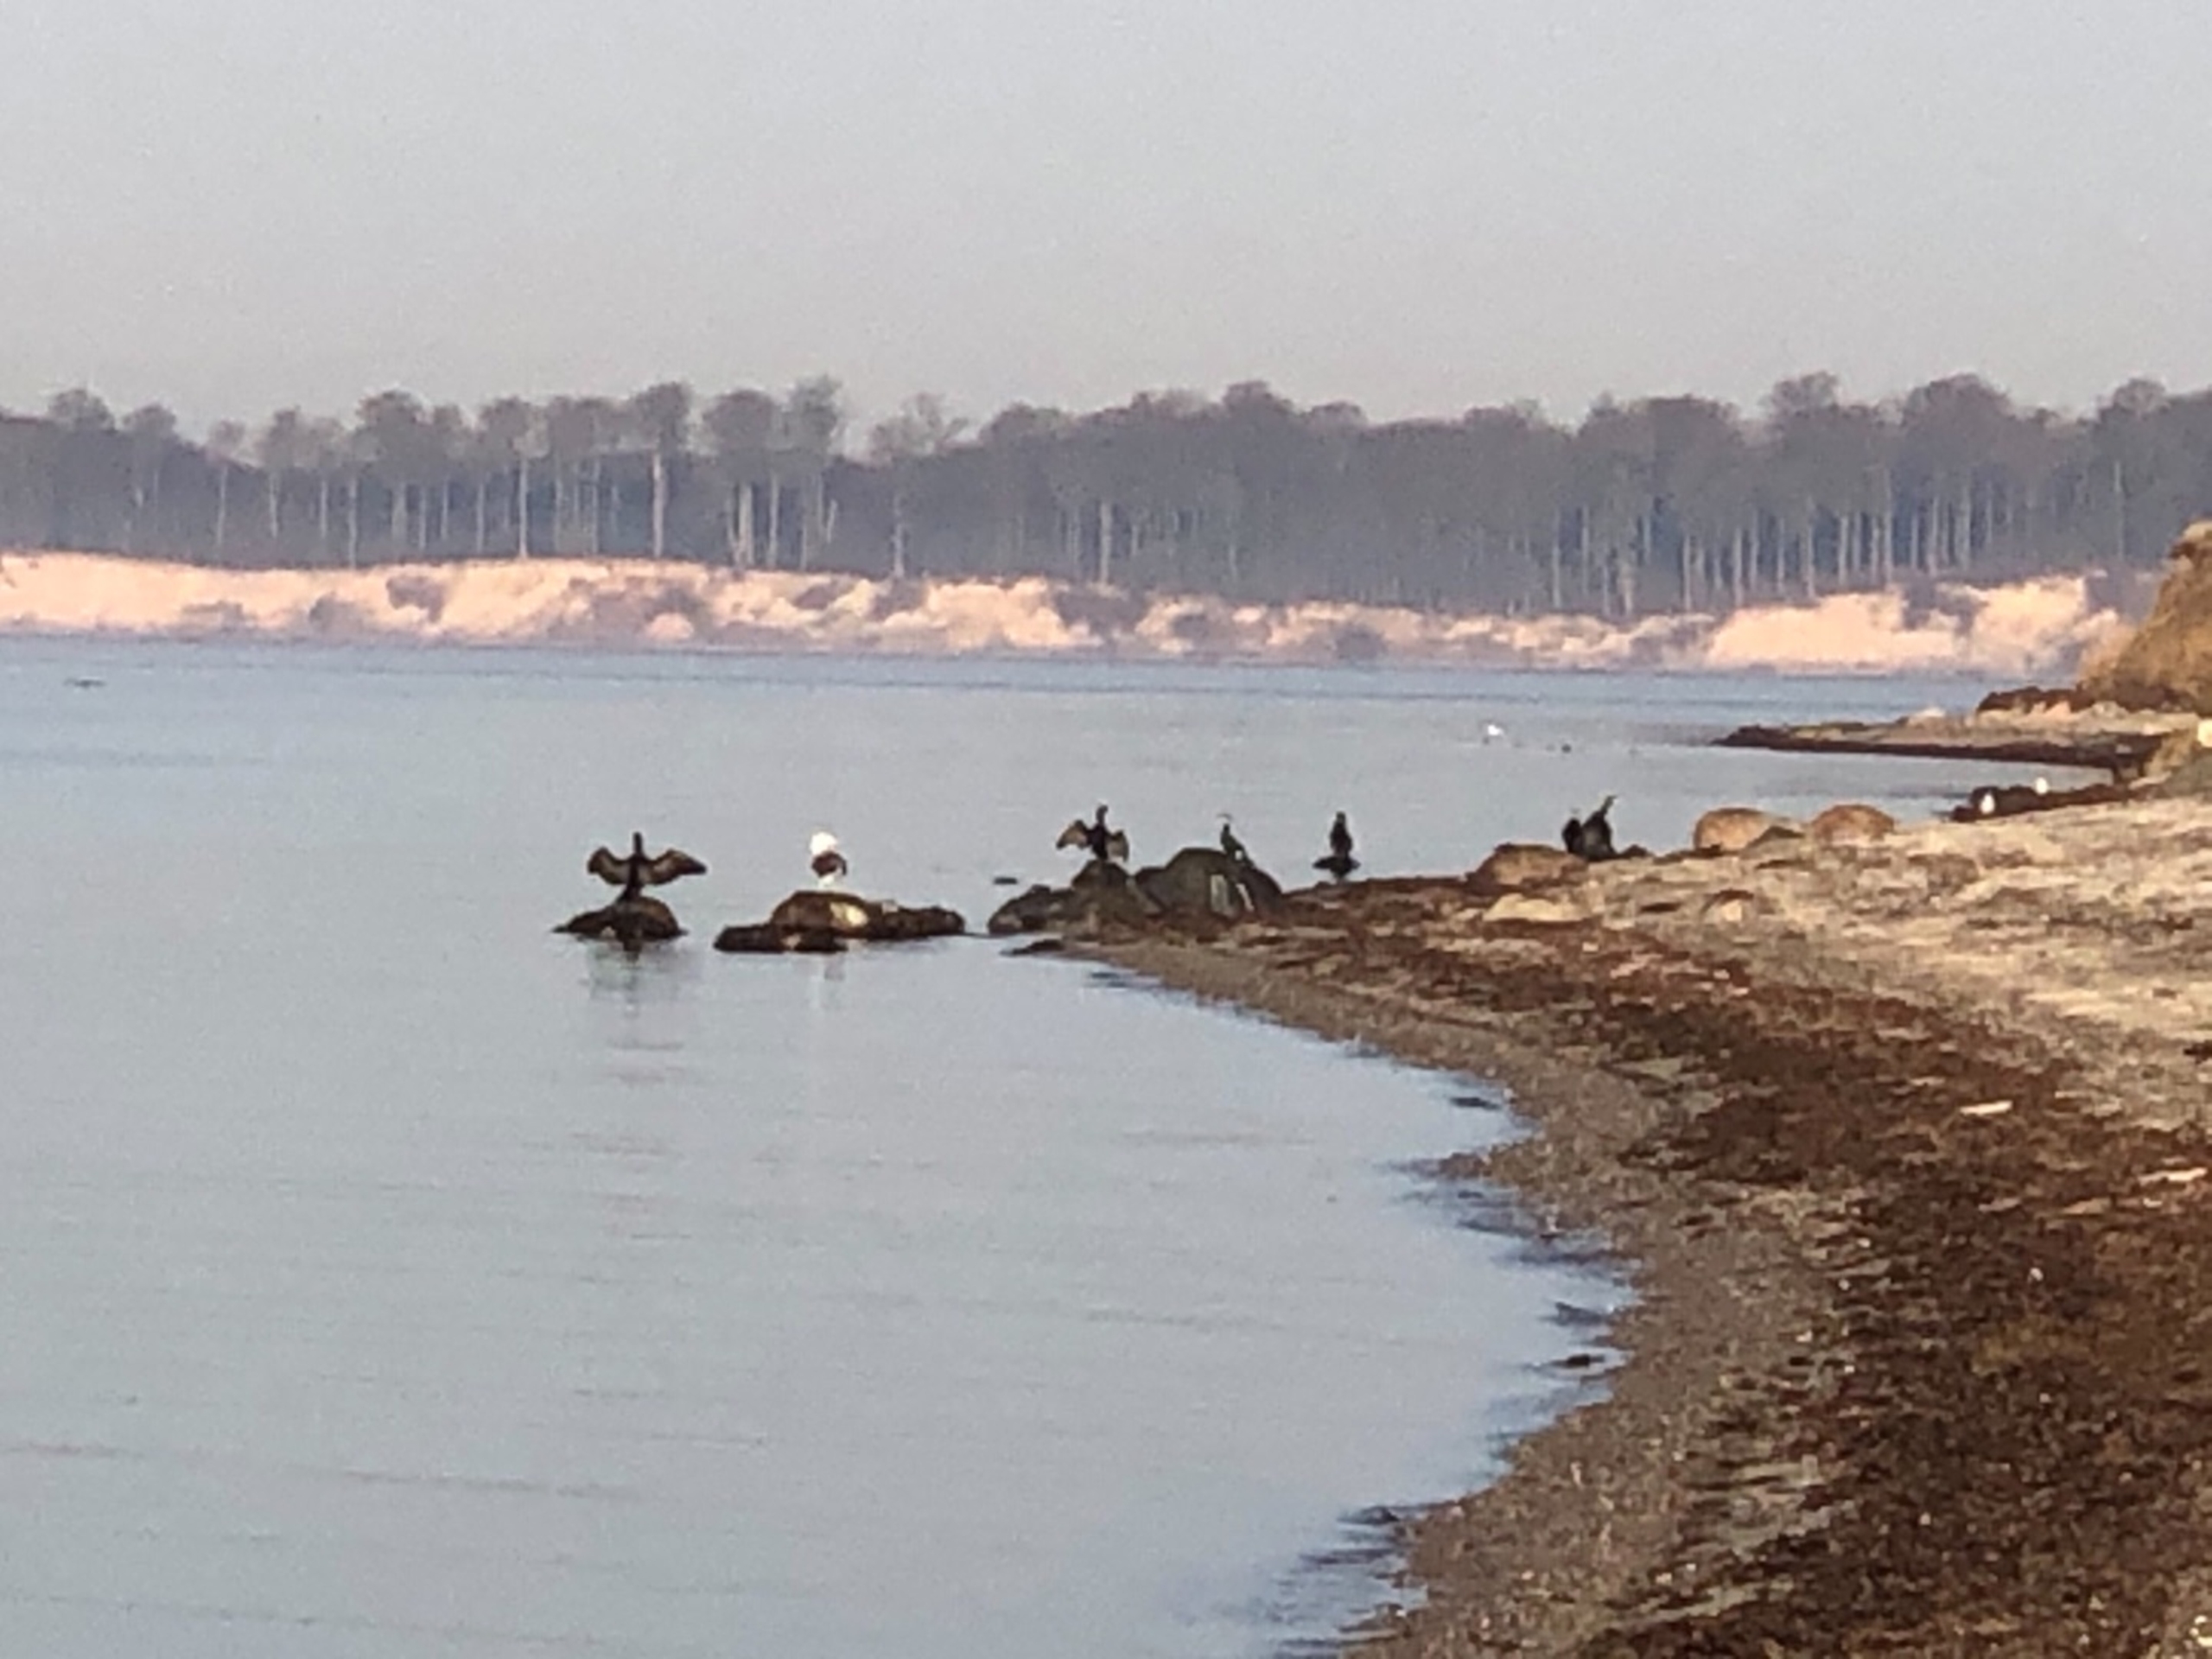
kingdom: Animalia
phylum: Chordata
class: Aves
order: Suliformes
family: Phalacrocoracidae
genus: Phalacrocorax
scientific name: Phalacrocorax carbo
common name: Skarv
